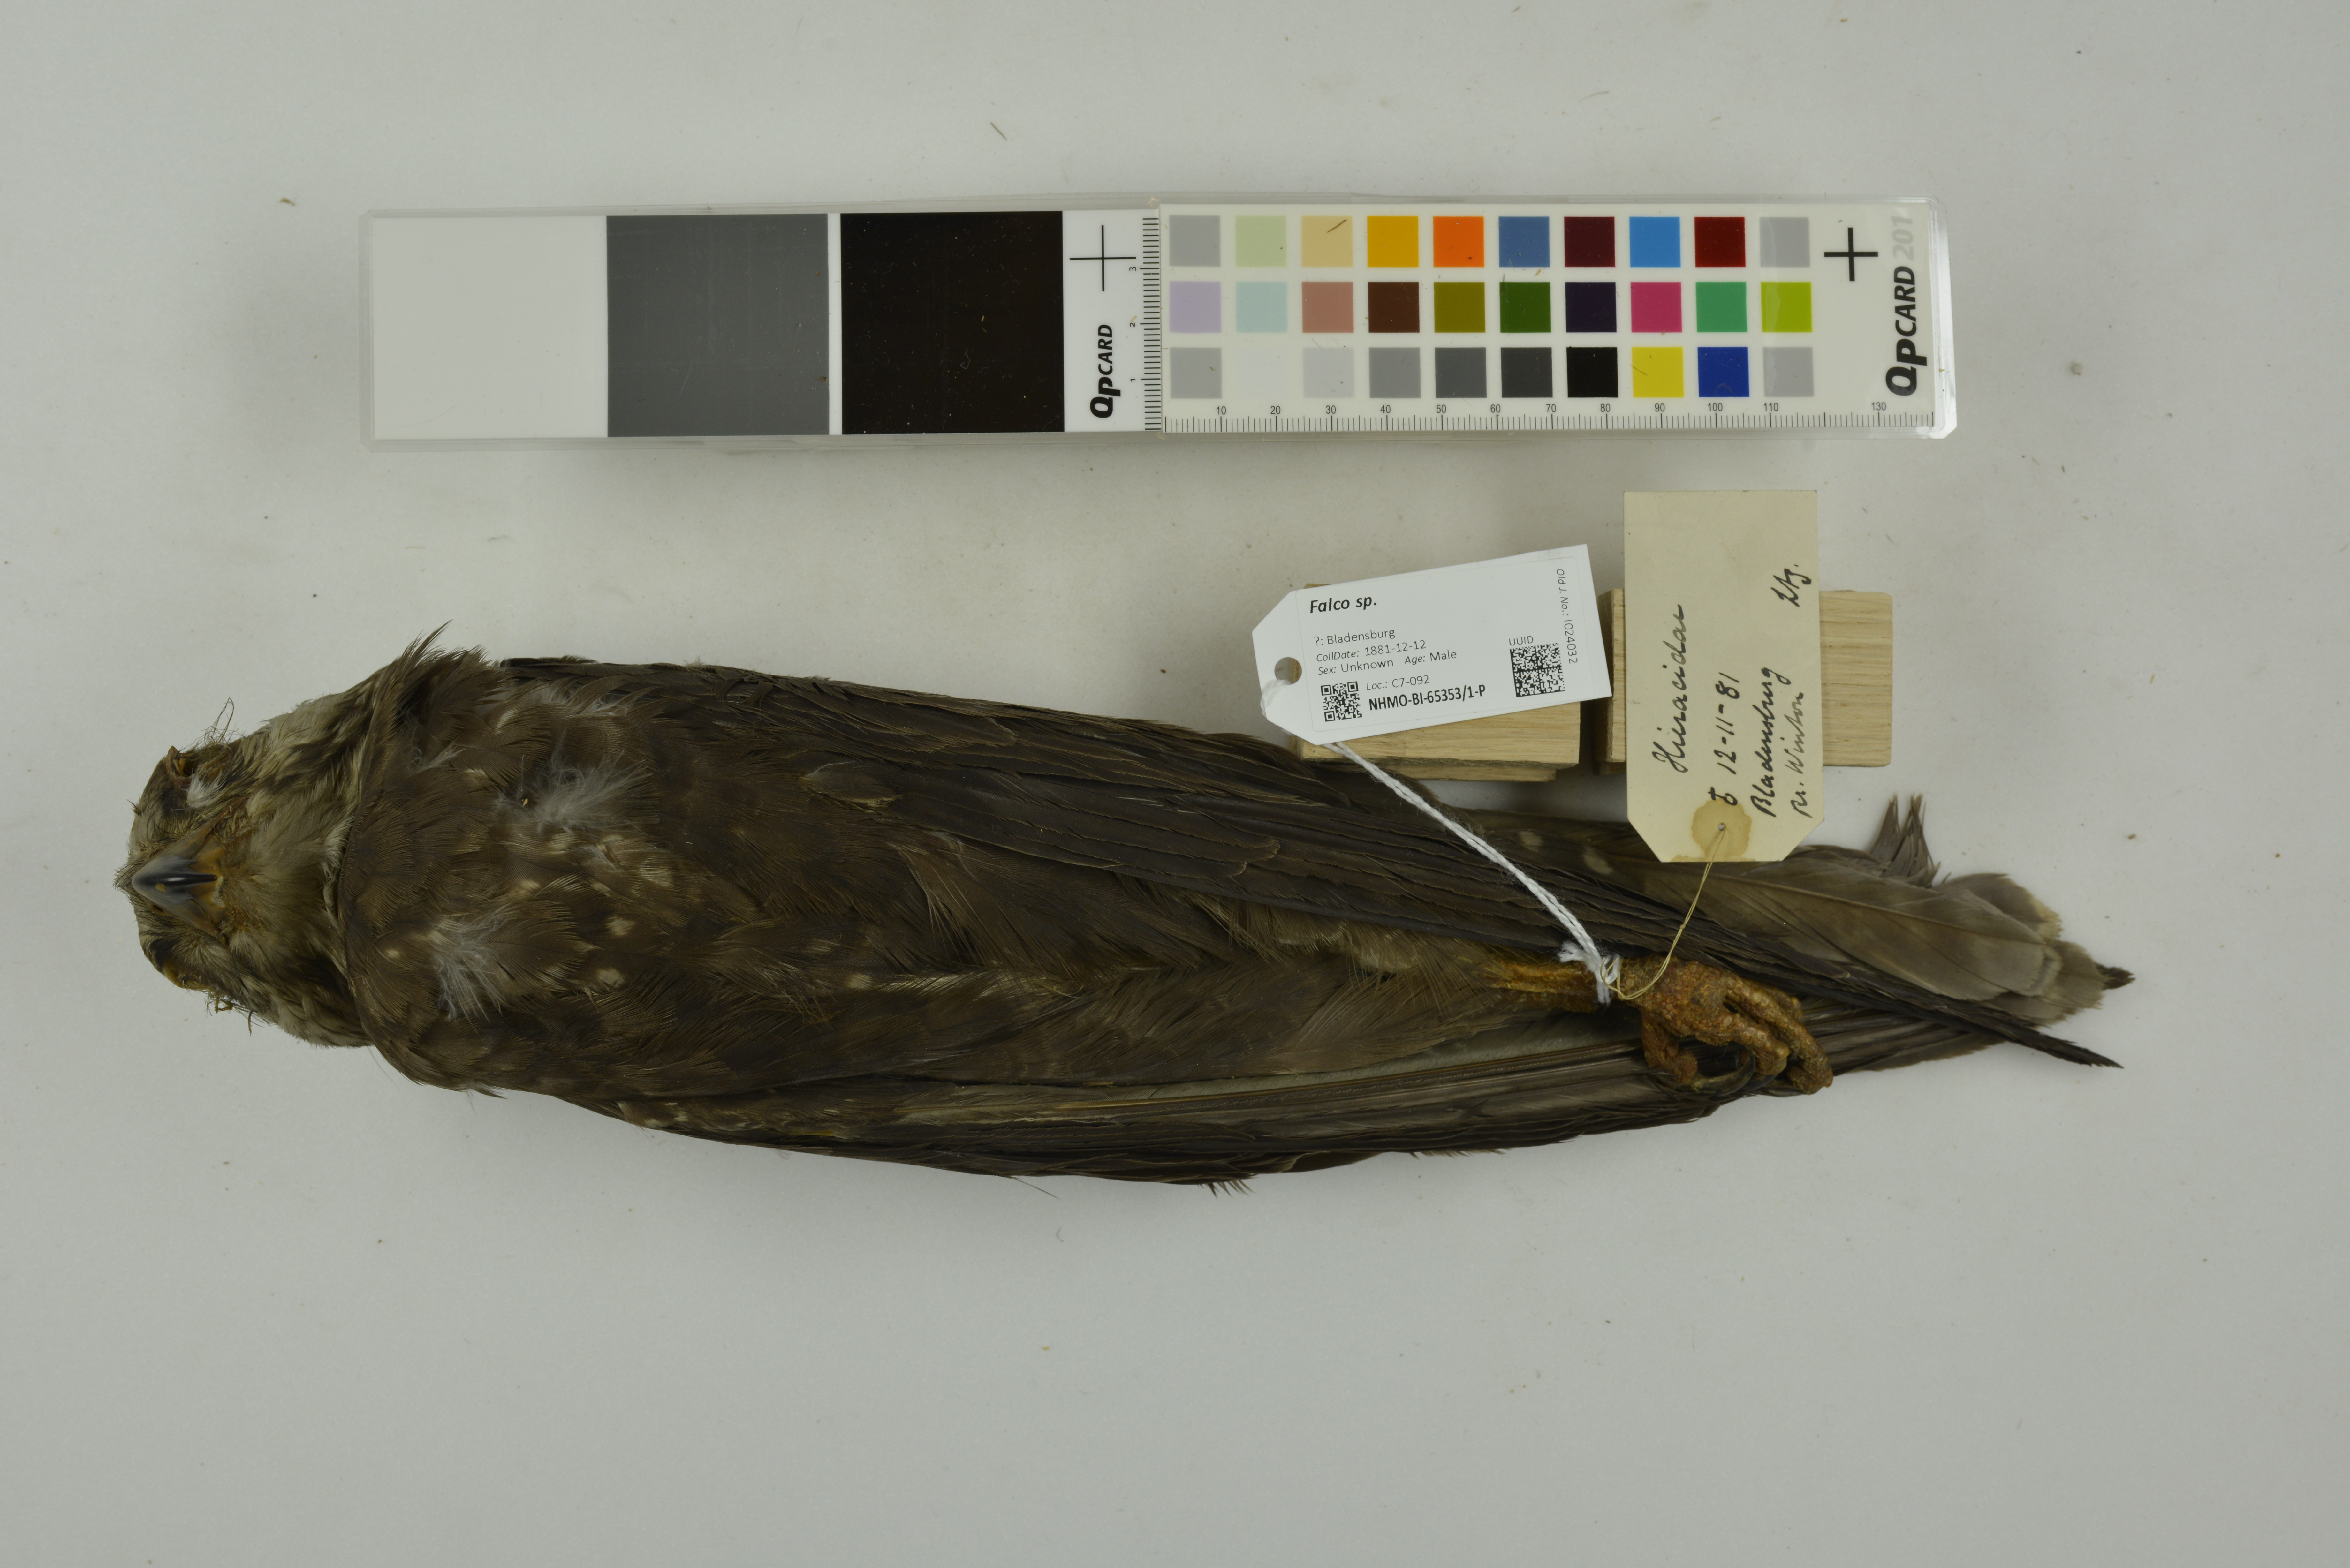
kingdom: Animalia
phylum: Chordata
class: Aves
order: Falconiformes
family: Falconidae
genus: Falco
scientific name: Falco berigora
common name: Brown falcon
